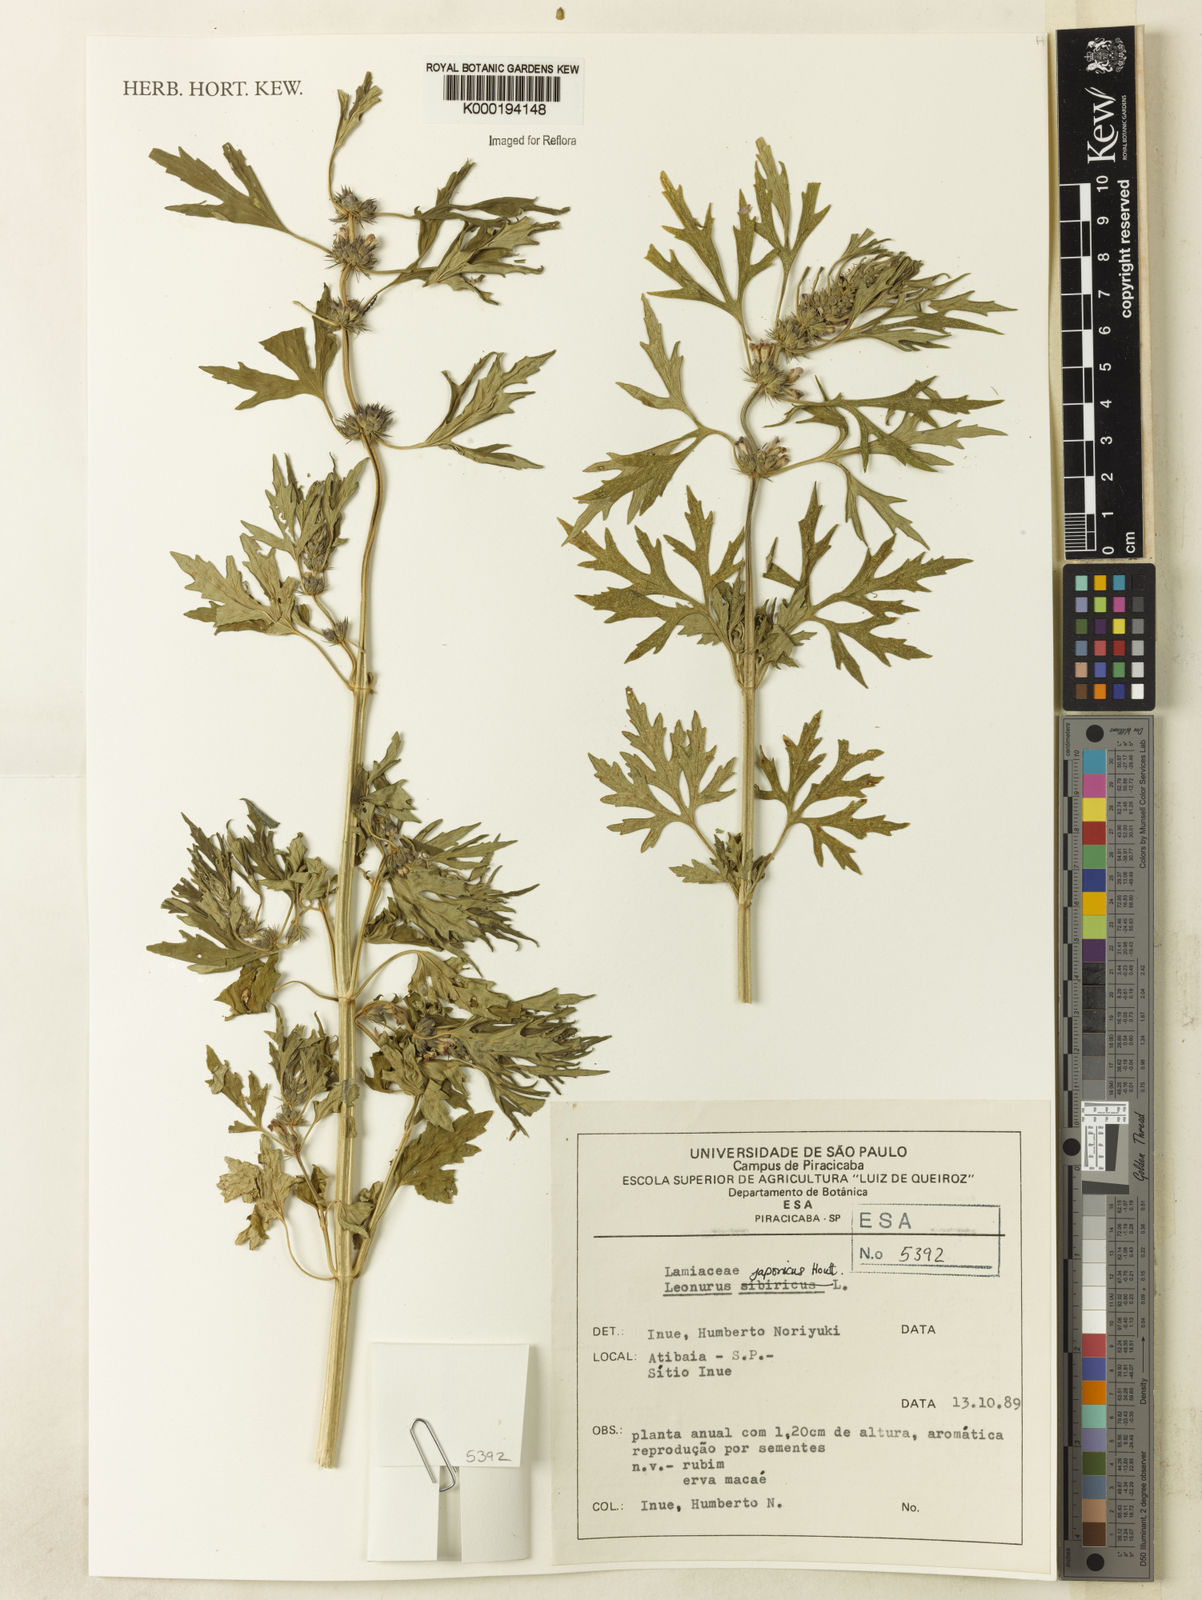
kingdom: Plantae
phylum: Tracheophyta
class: Magnoliopsida
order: Lamiales
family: Lamiaceae
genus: Leonurus
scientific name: Leonurus japonicus
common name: Honeyweed
